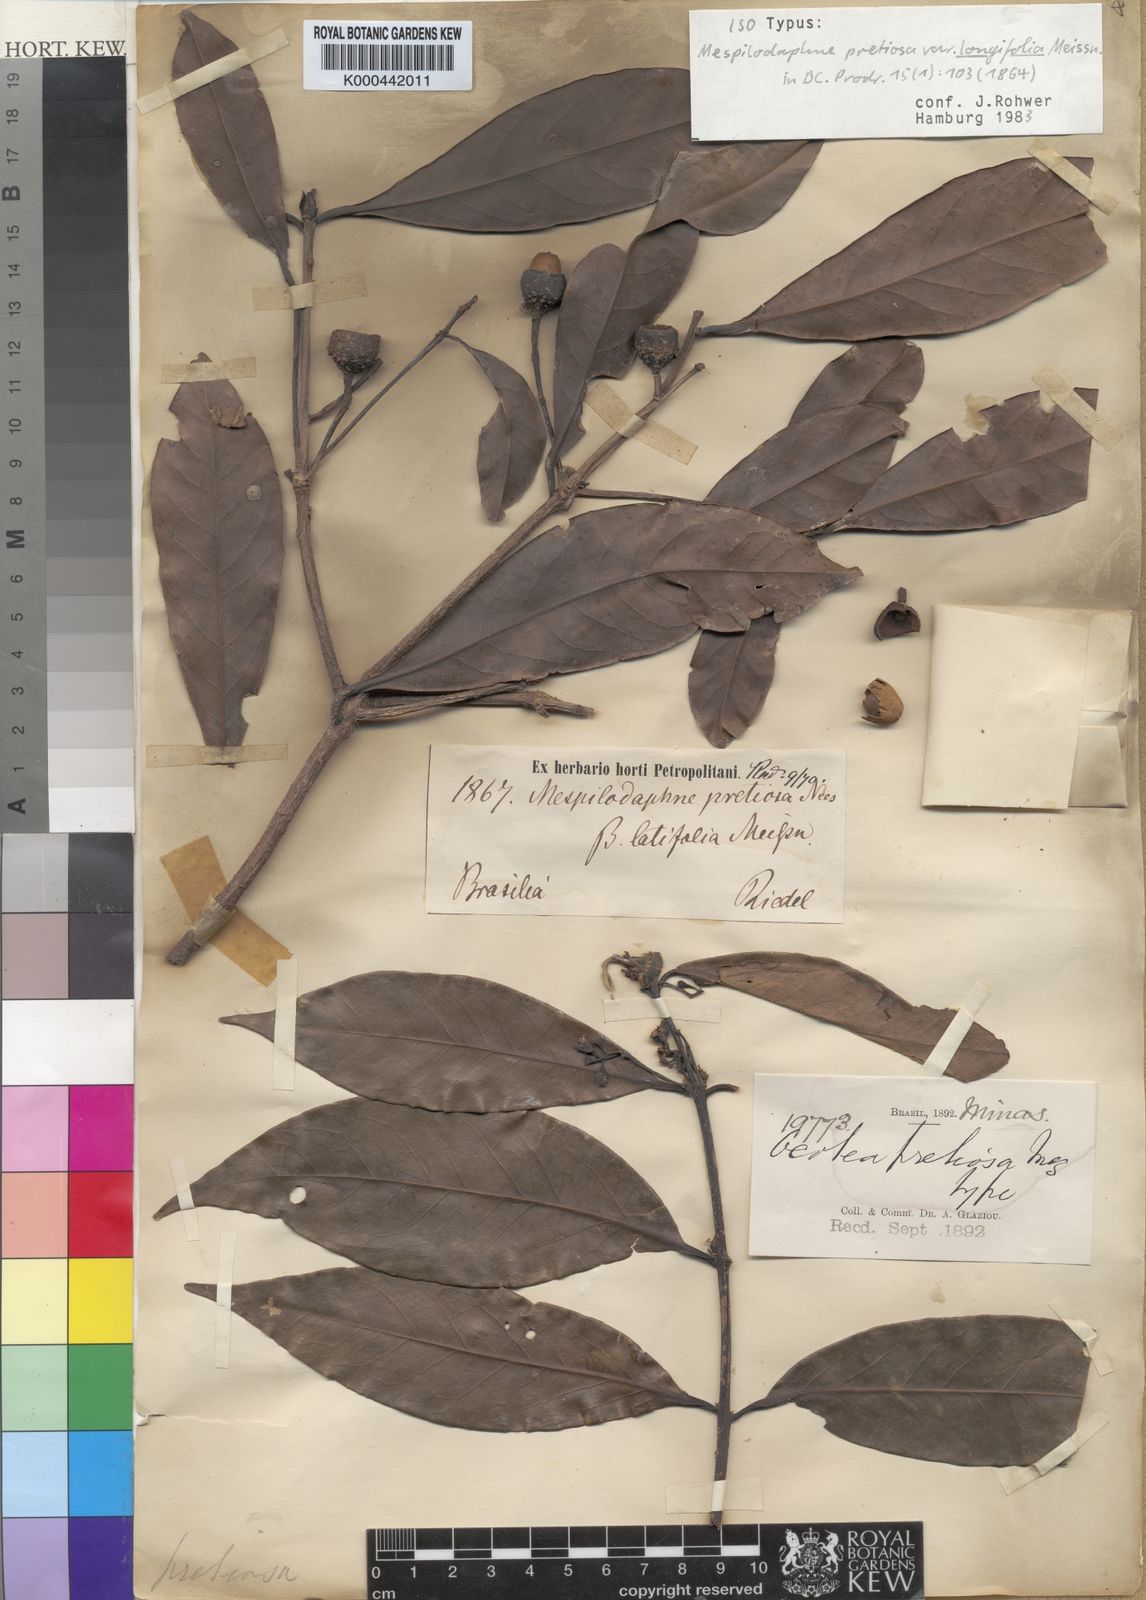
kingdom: Plantae
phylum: Tracheophyta
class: Magnoliopsida
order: Laurales
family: Lauraceae
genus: Mespilodaphne
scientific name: Mespilodaphne quixos
